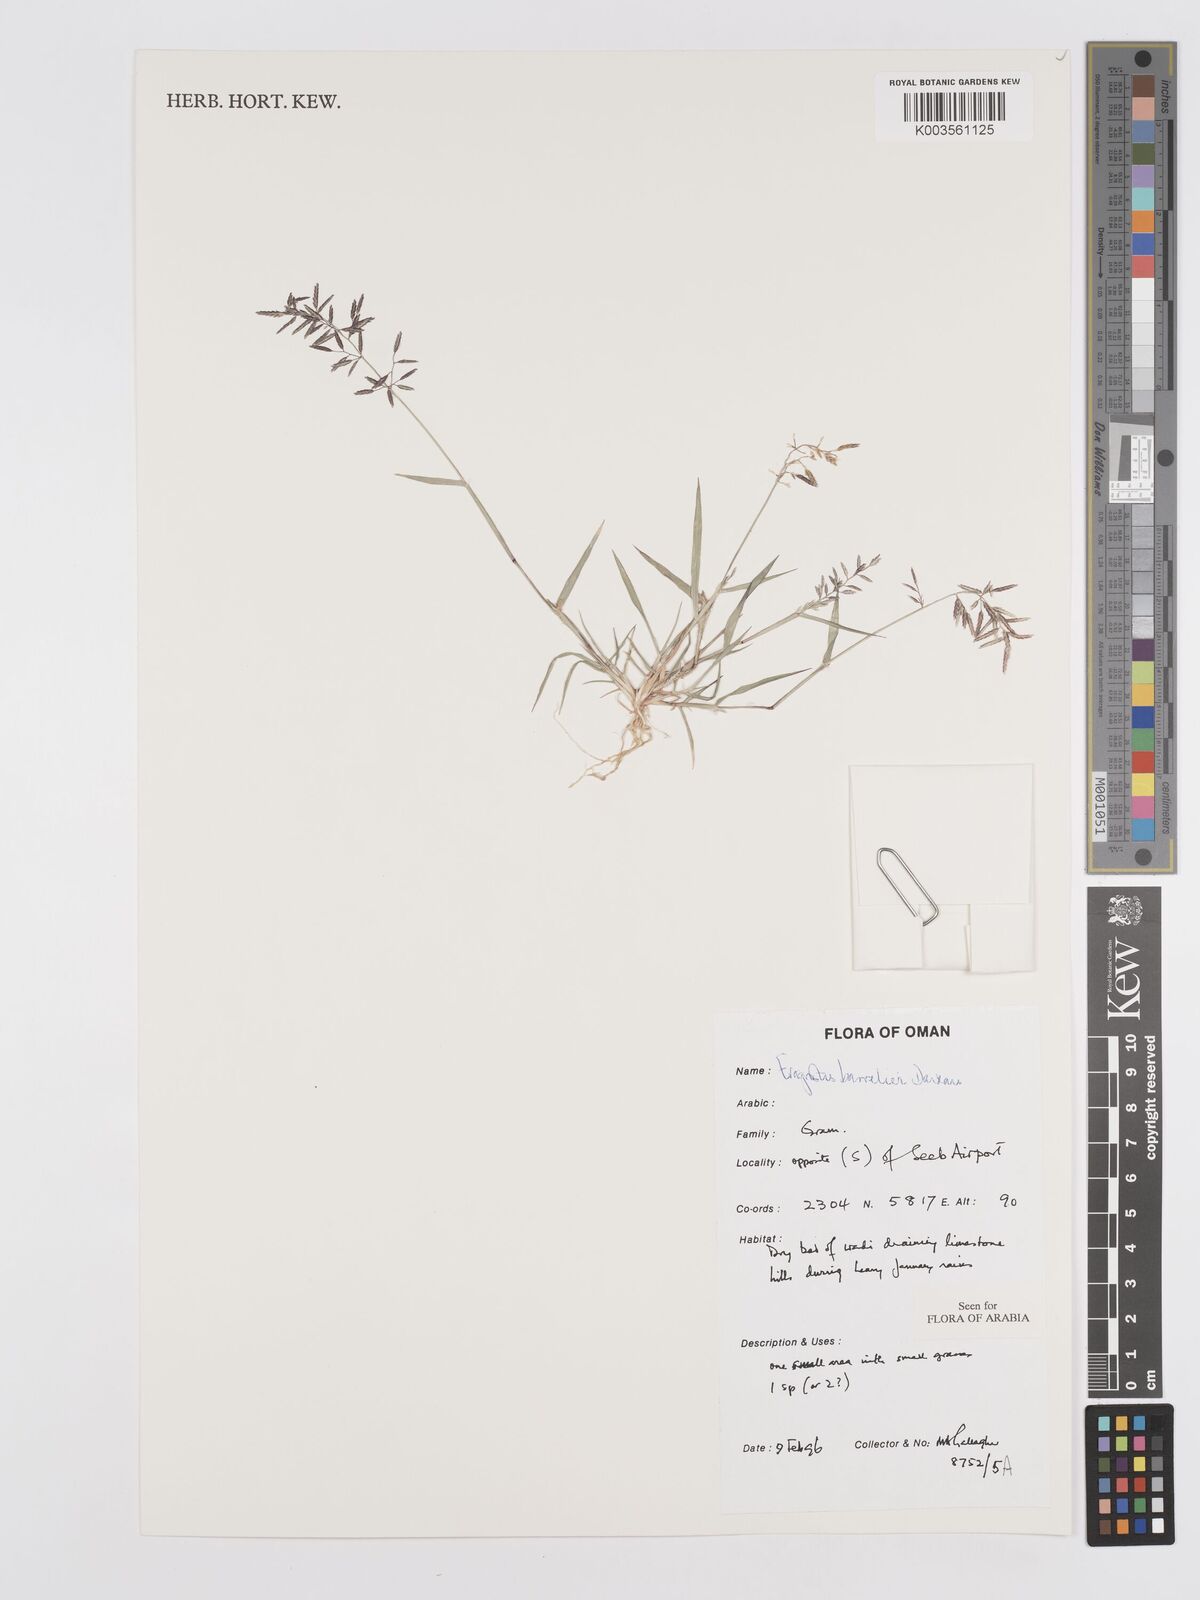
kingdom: Plantae
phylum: Tracheophyta
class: Liliopsida
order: Poales
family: Poaceae
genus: Eragrostis
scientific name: Eragrostis barrelieri
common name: Mediterranean lovegrass
